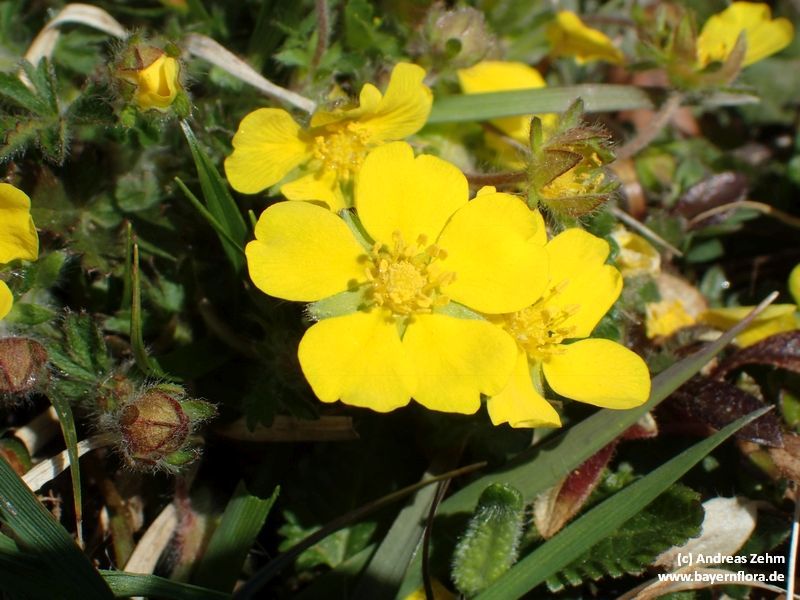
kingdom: Plantae
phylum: Tracheophyta
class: Magnoliopsida
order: Rosales
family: Rosaceae
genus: Potentilla
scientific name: Potentilla heptaphylla
